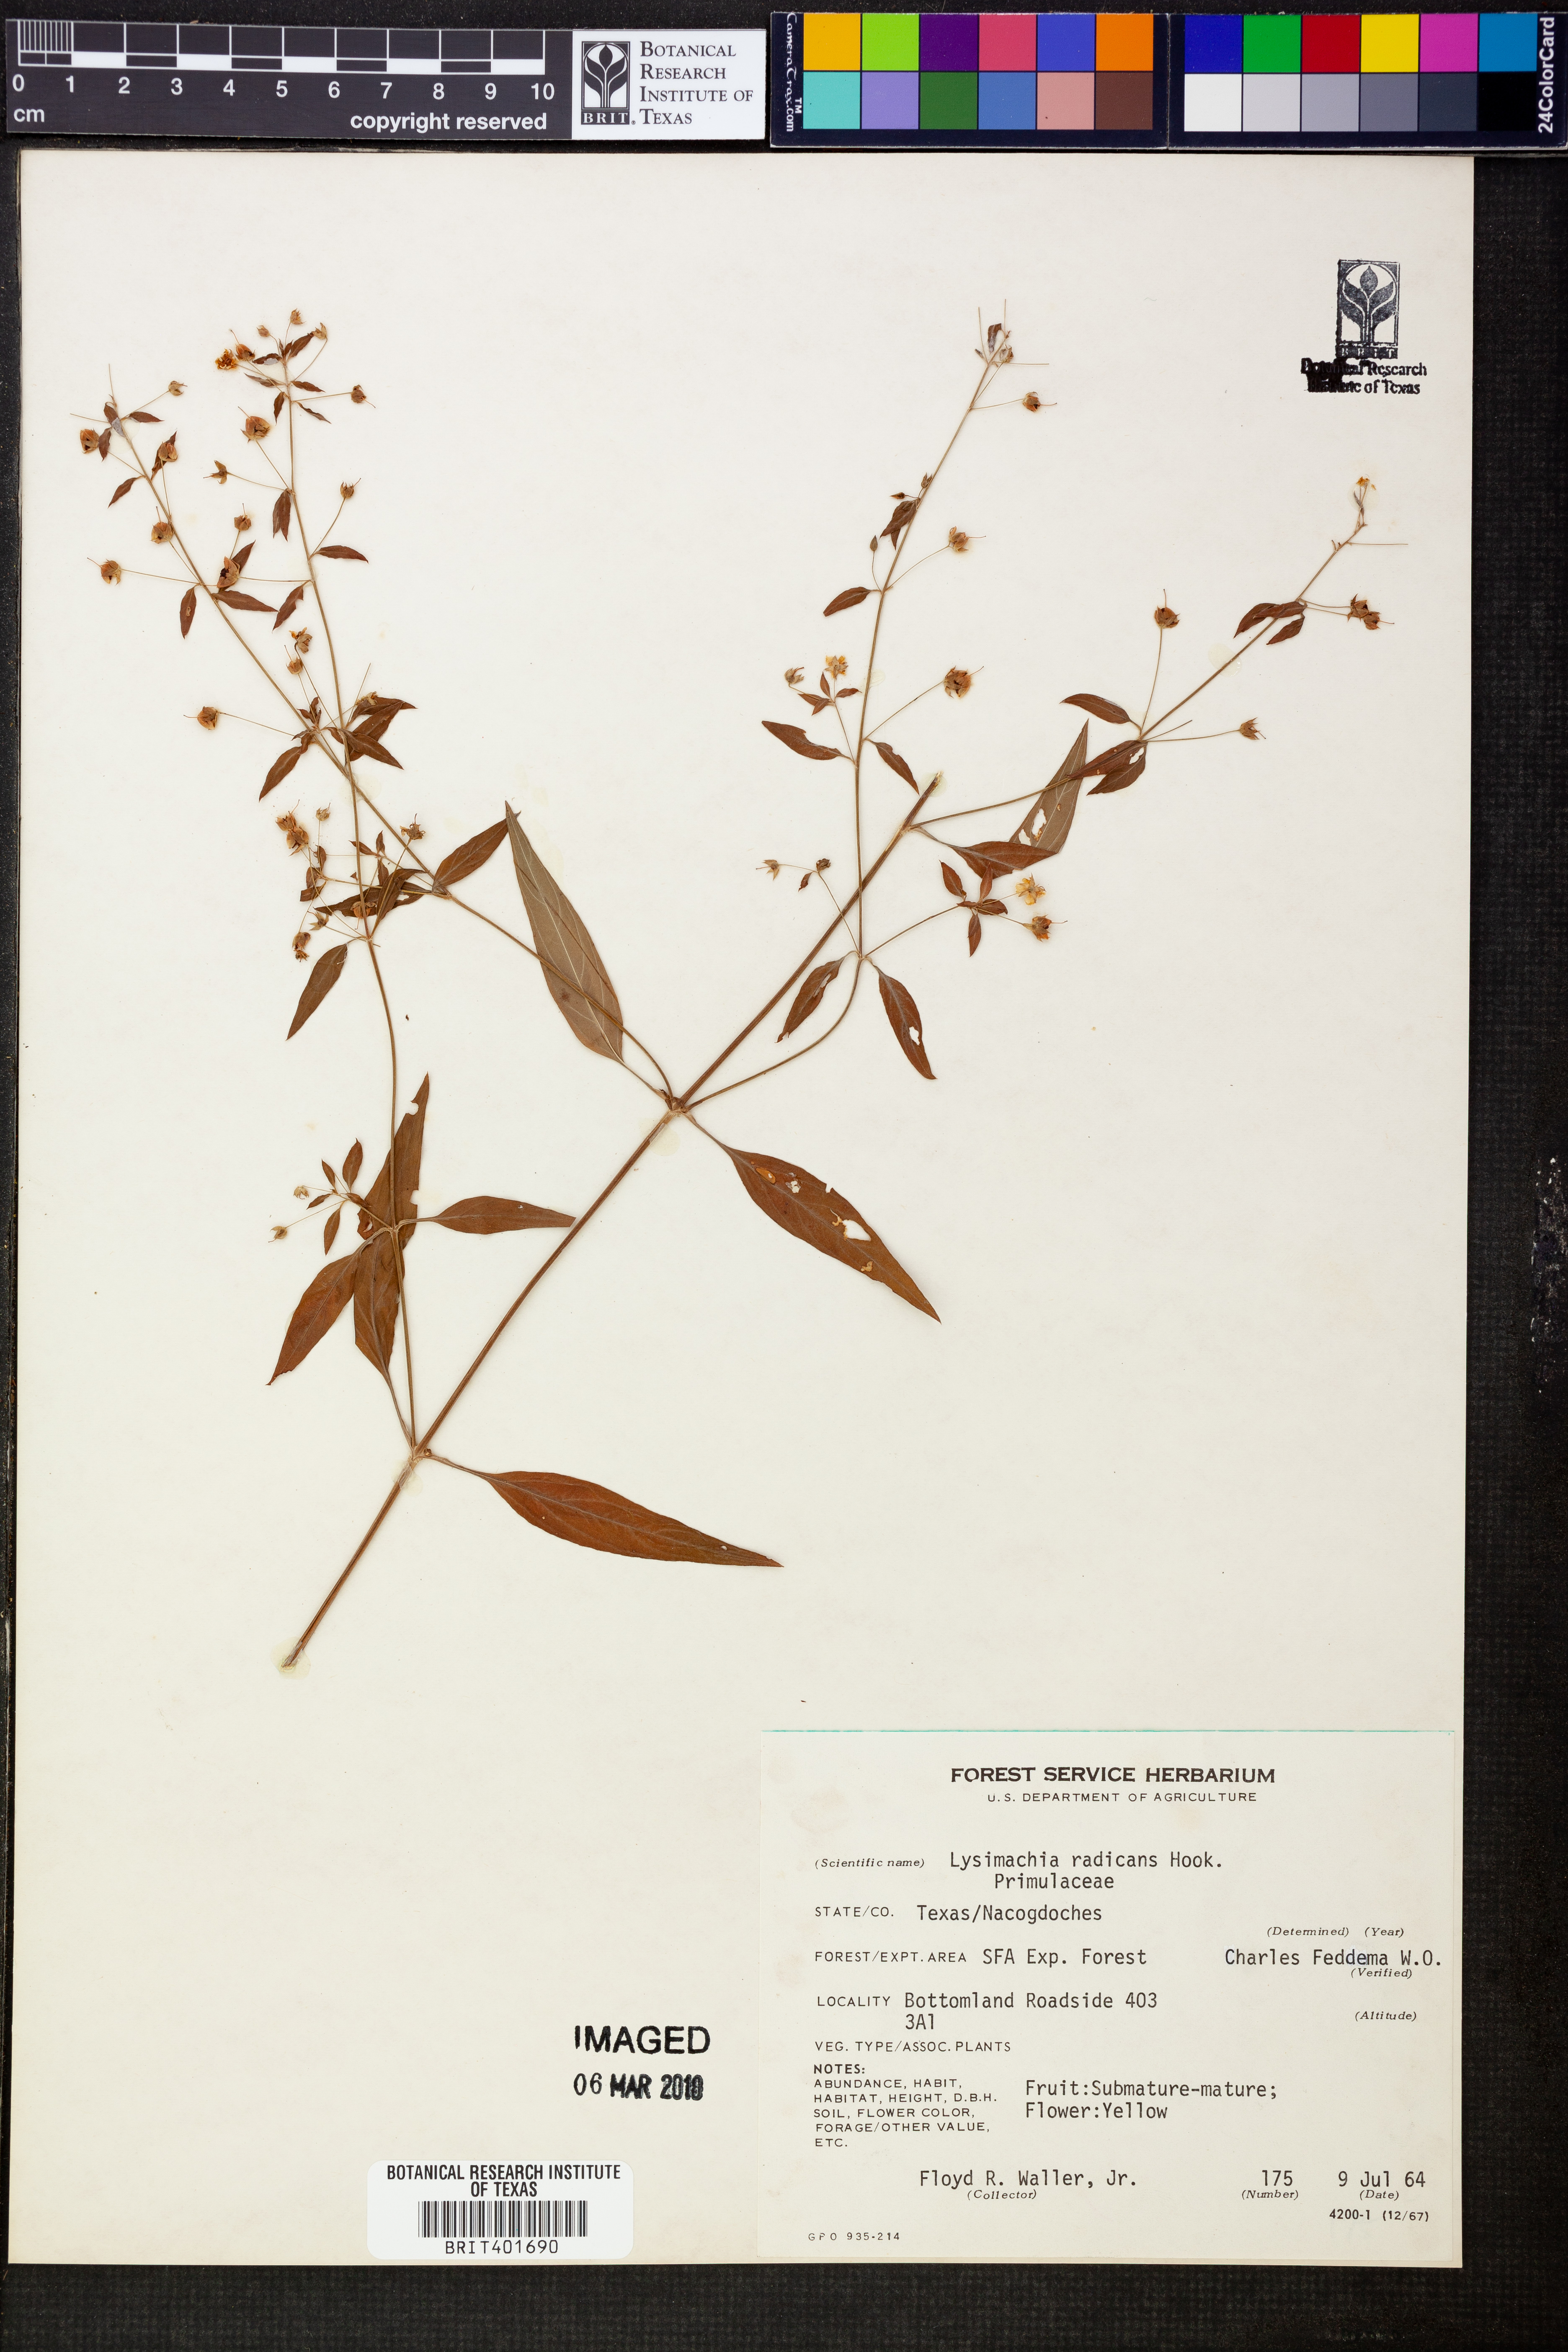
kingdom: Plantae
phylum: Tracheophyta
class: Magnoliopsida
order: Ericales
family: Primulaceae
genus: Lysimachia
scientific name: Lysimachia radicans
